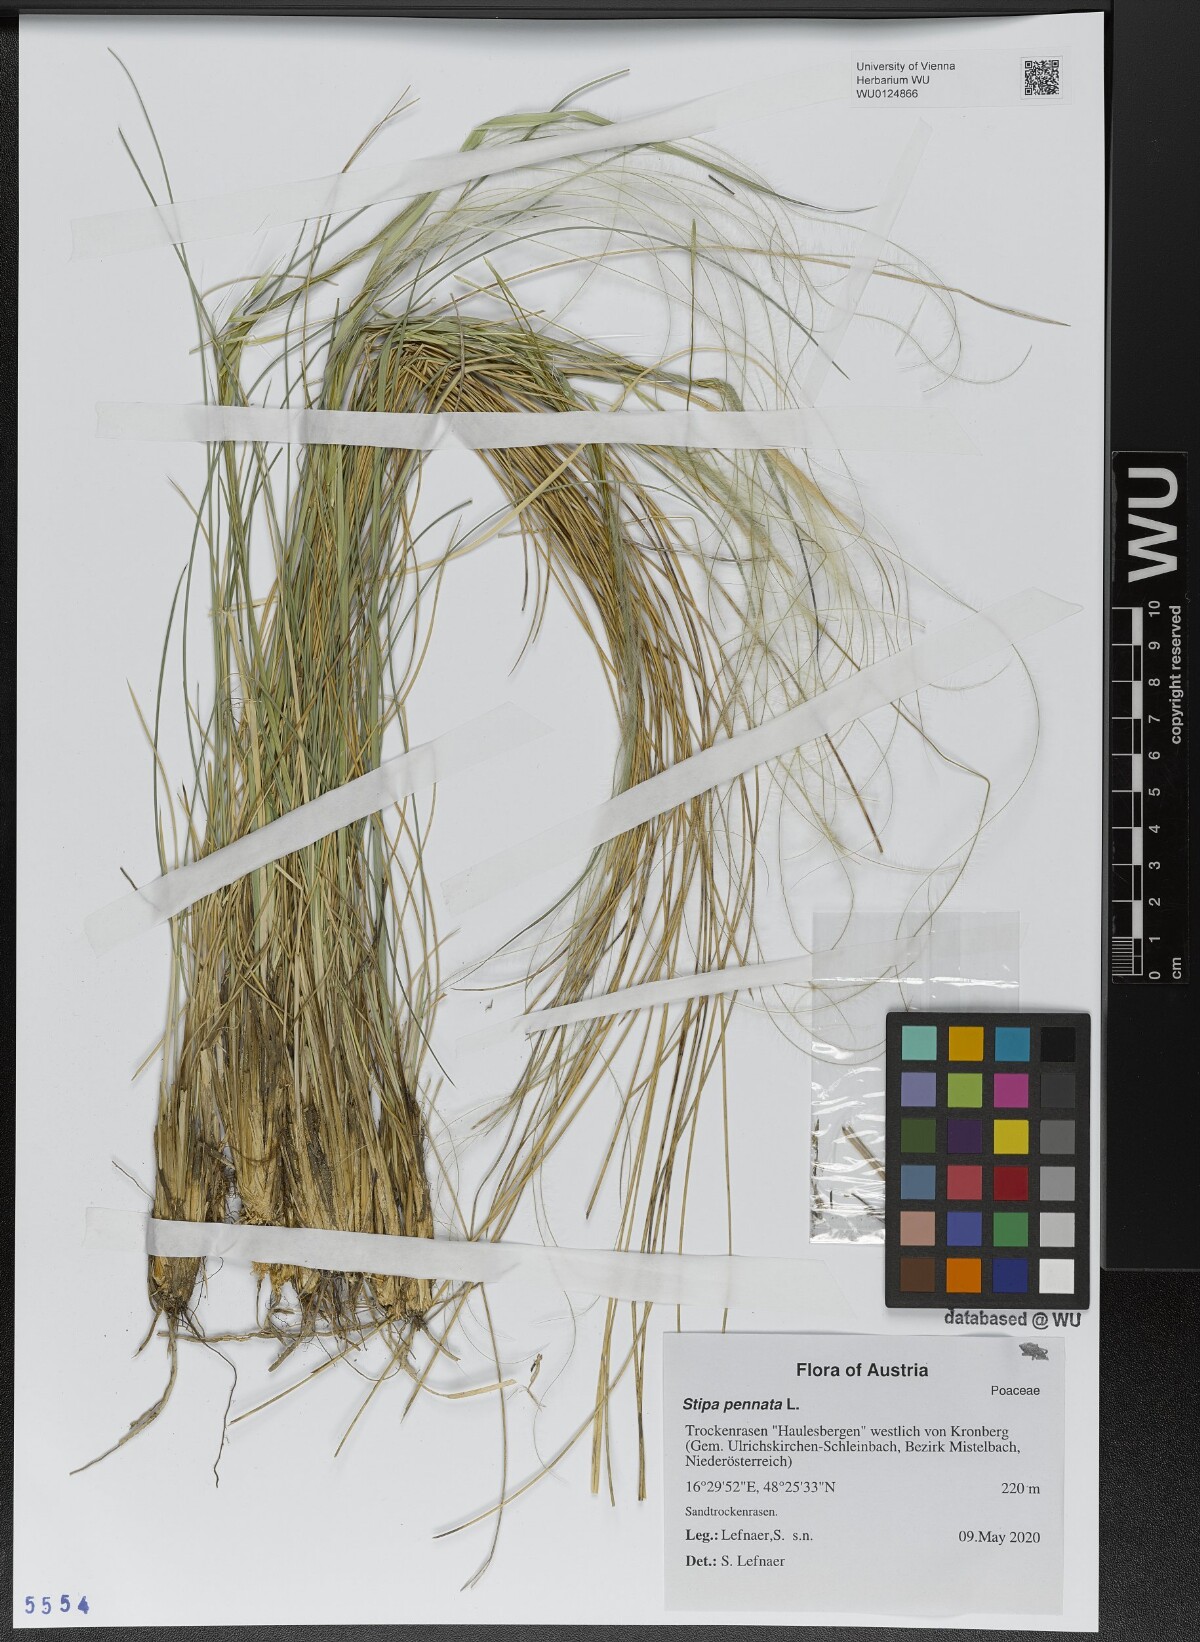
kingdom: Plantae
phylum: Tracheophyta
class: Liliopsida
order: Poales
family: Poaceae
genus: Stipa
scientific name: Stipa pennata
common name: European feather grass
